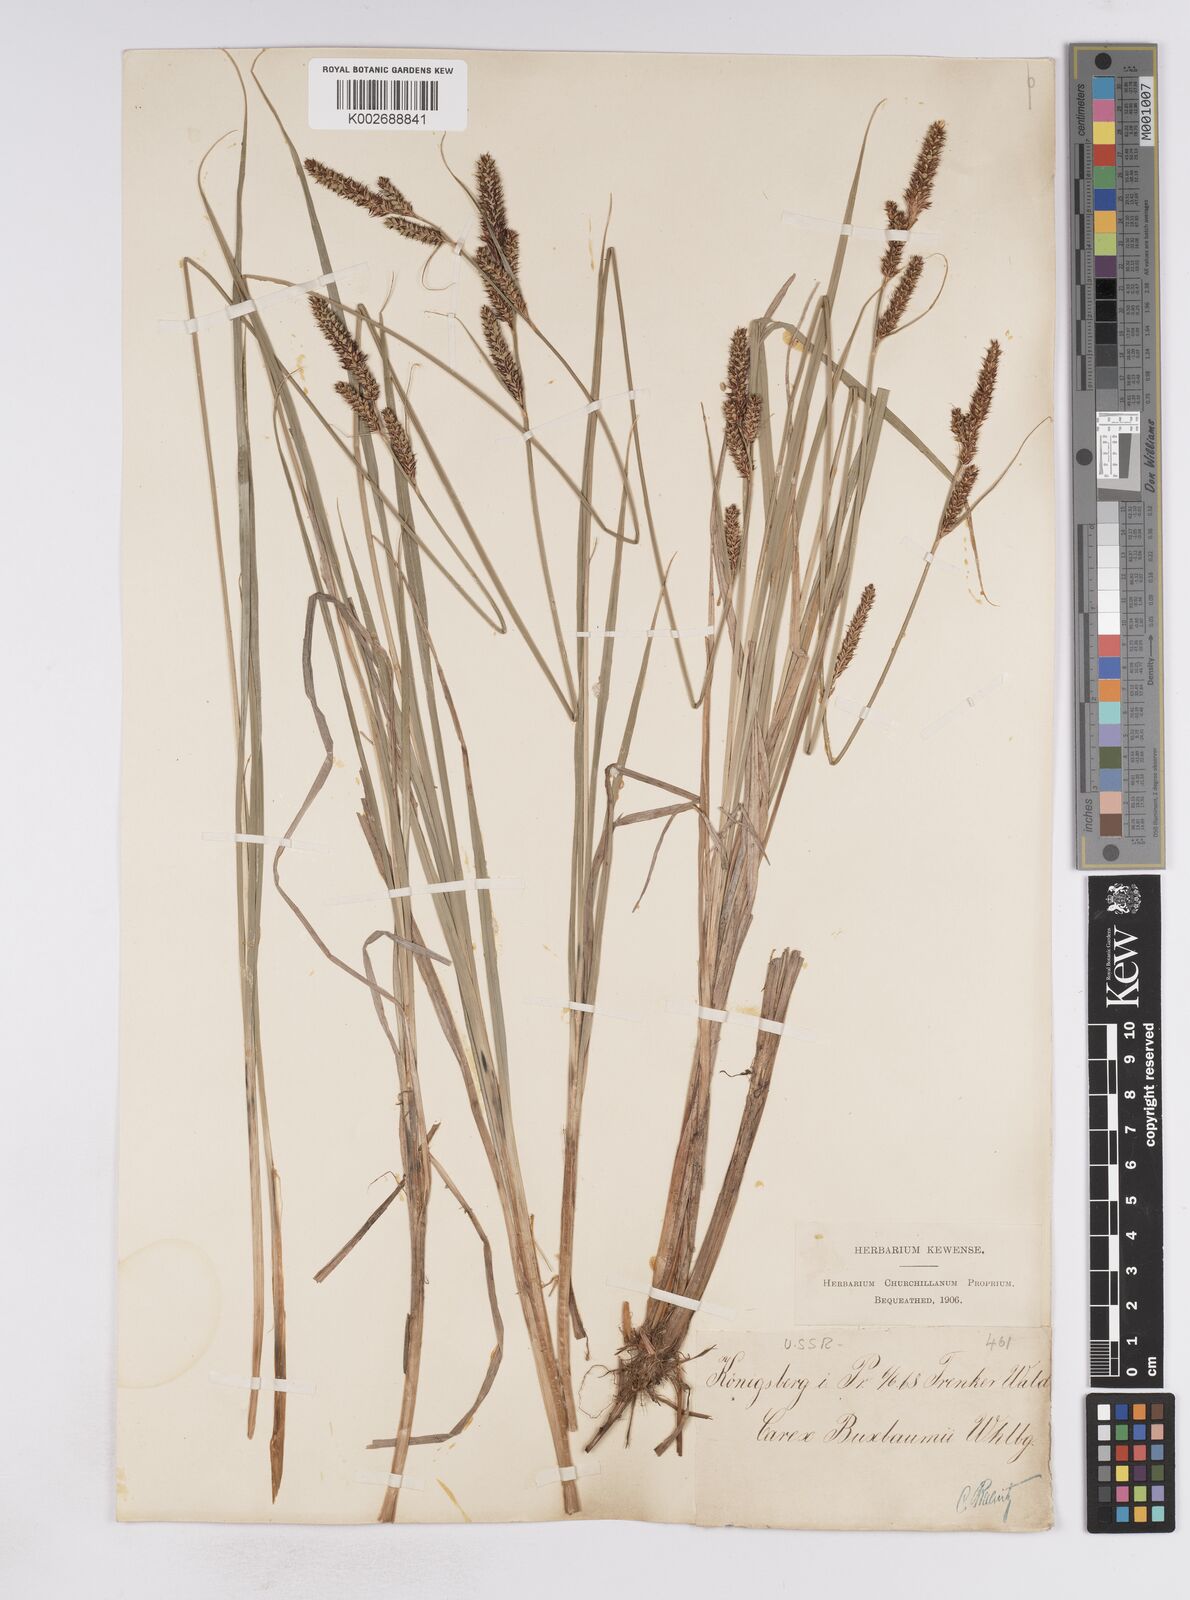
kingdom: Plantae
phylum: Tracheophyta
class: Liliopsida
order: Poales
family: Cyperaceae
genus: Carex
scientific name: Carex buxbaumii
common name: Club sedge
